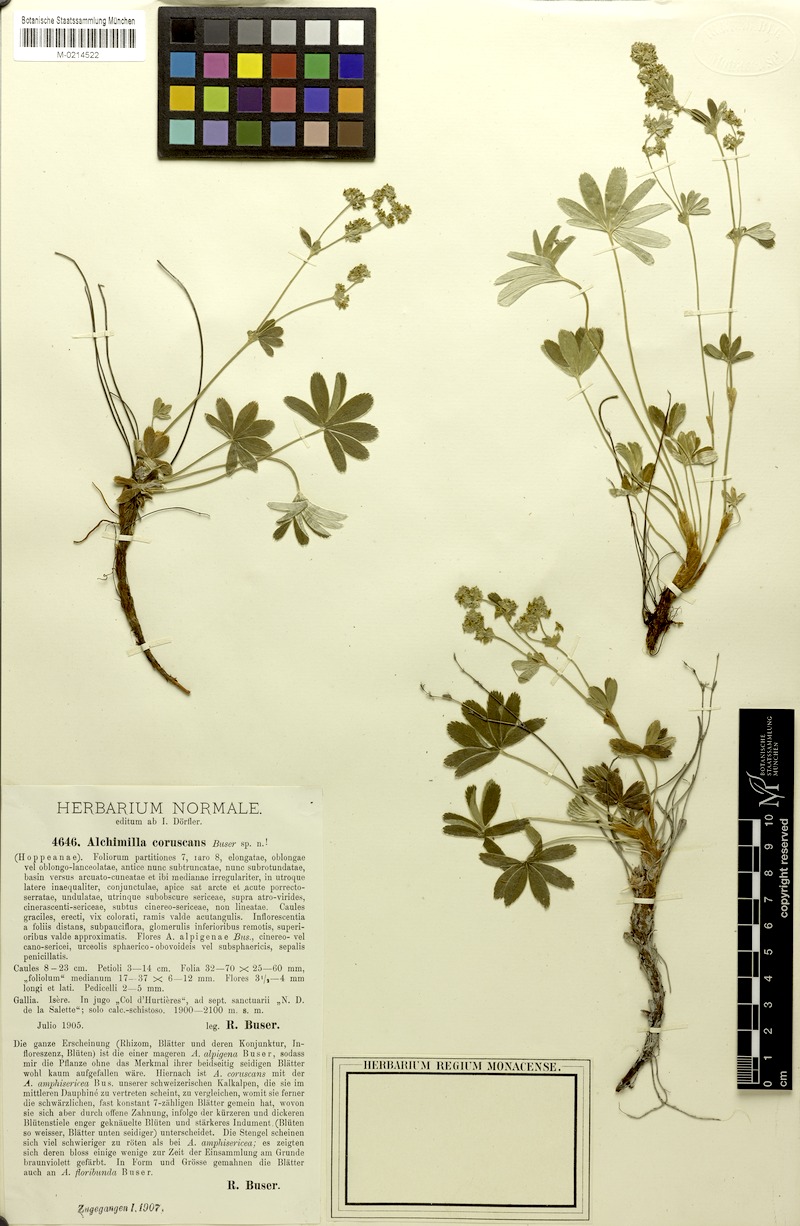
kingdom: Plantae
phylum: Tracheophyta
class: Magnoliopsida
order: Rosales
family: Rosaceae
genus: Alchemilla
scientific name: Alchemilla coruscans
